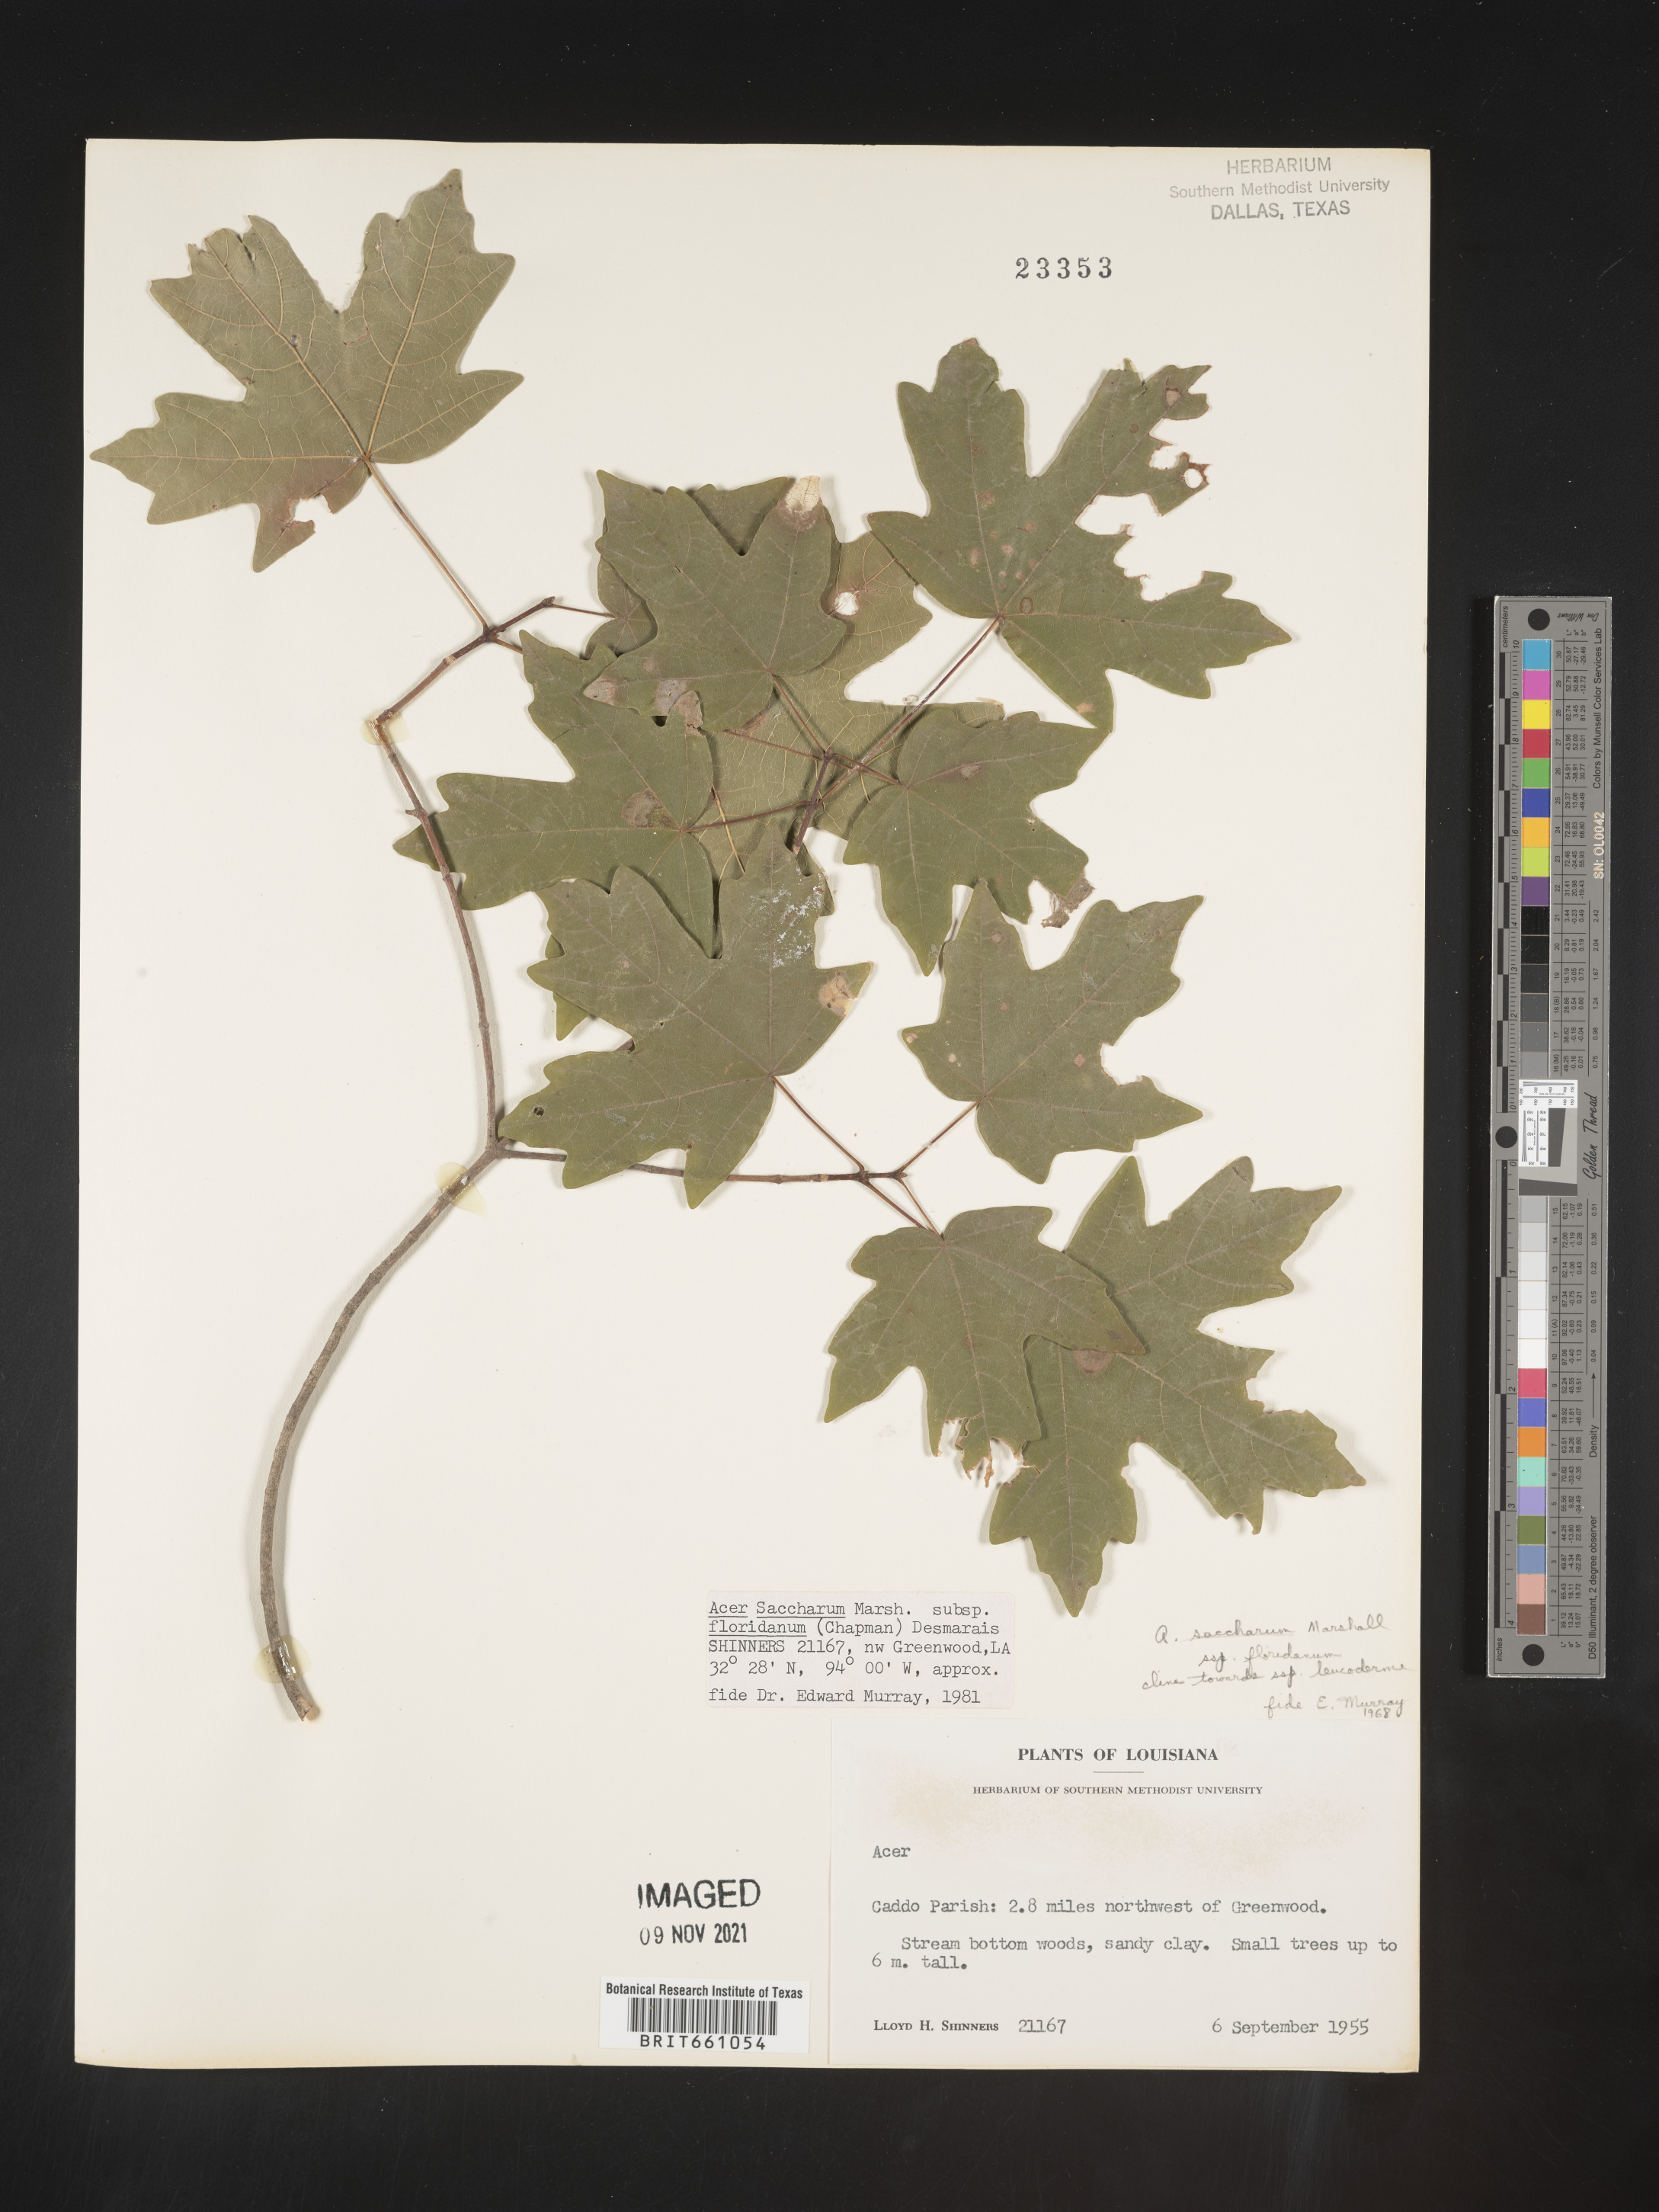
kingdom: Plantae
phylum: Tracheophyta
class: Magnoliopsida
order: Sapindales
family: Sapindaceae
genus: Acer
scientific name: Acer barbatum
